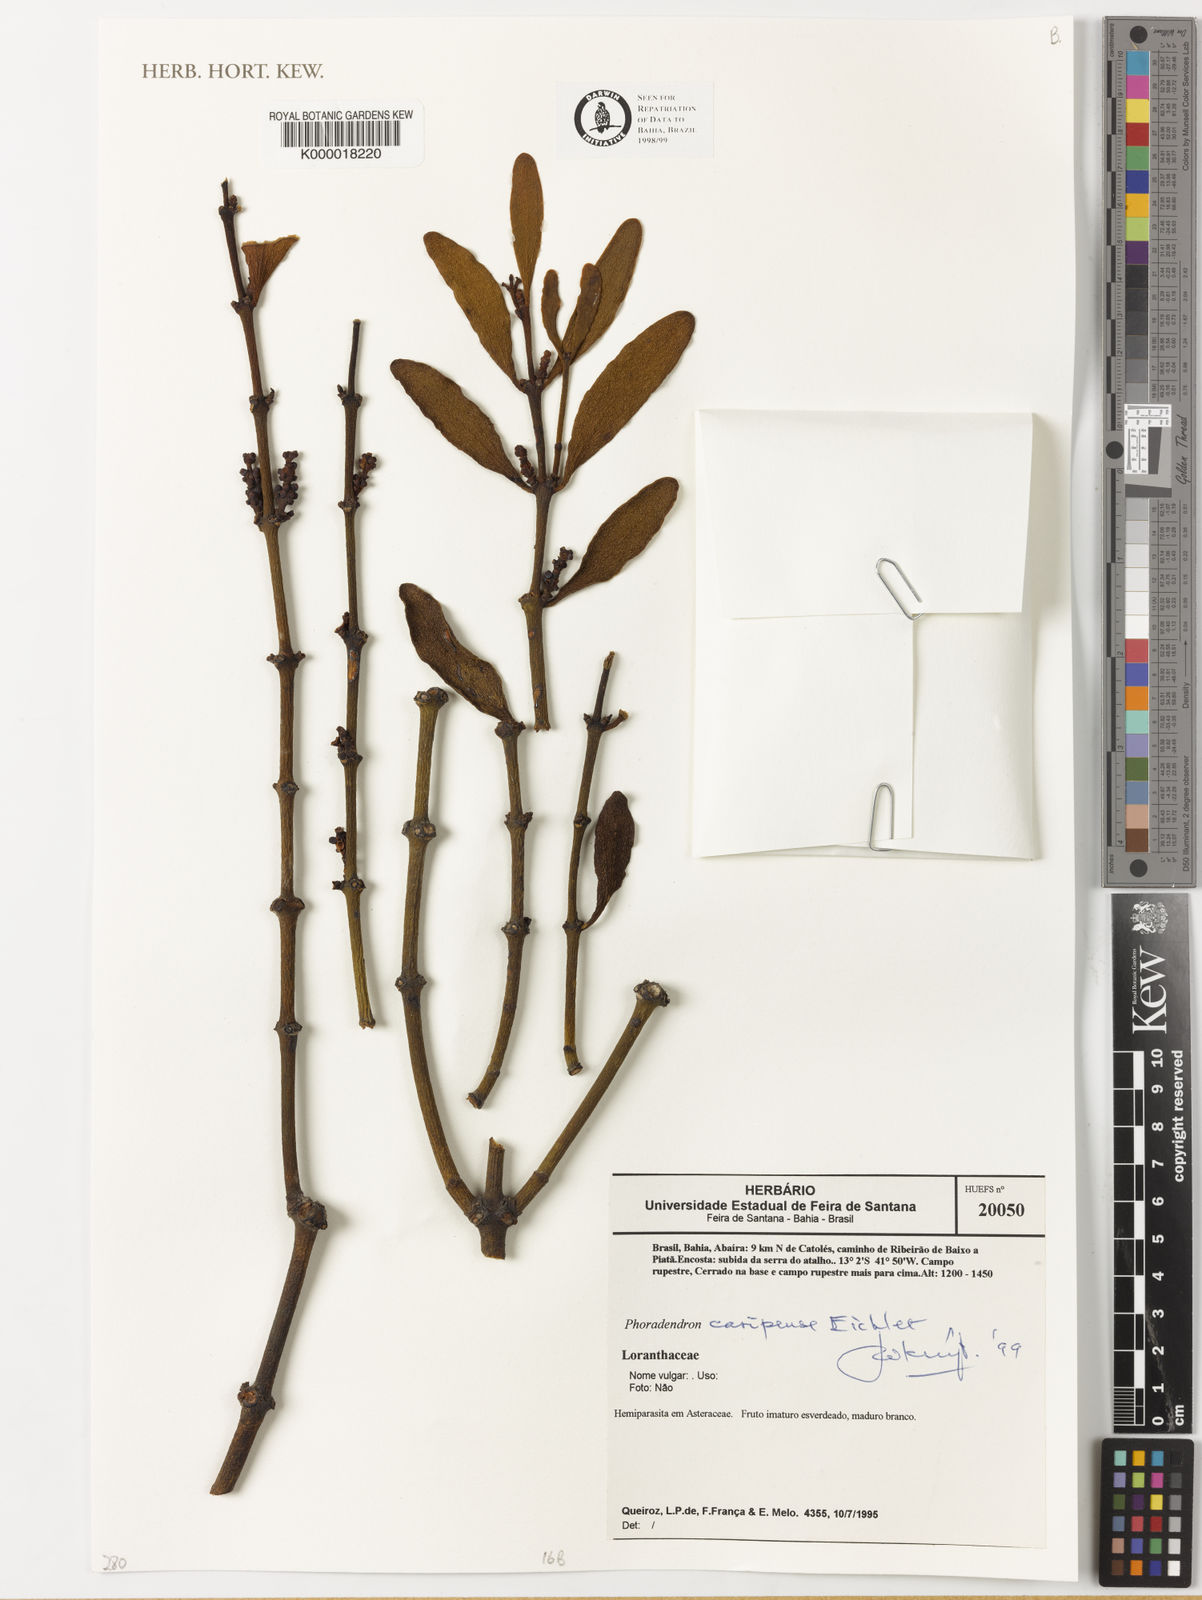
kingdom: Plantae
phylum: Tracheophyta
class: Magnoliopsida
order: Santalales
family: Viscaceae
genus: Phoradendron
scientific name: Phoradendron
